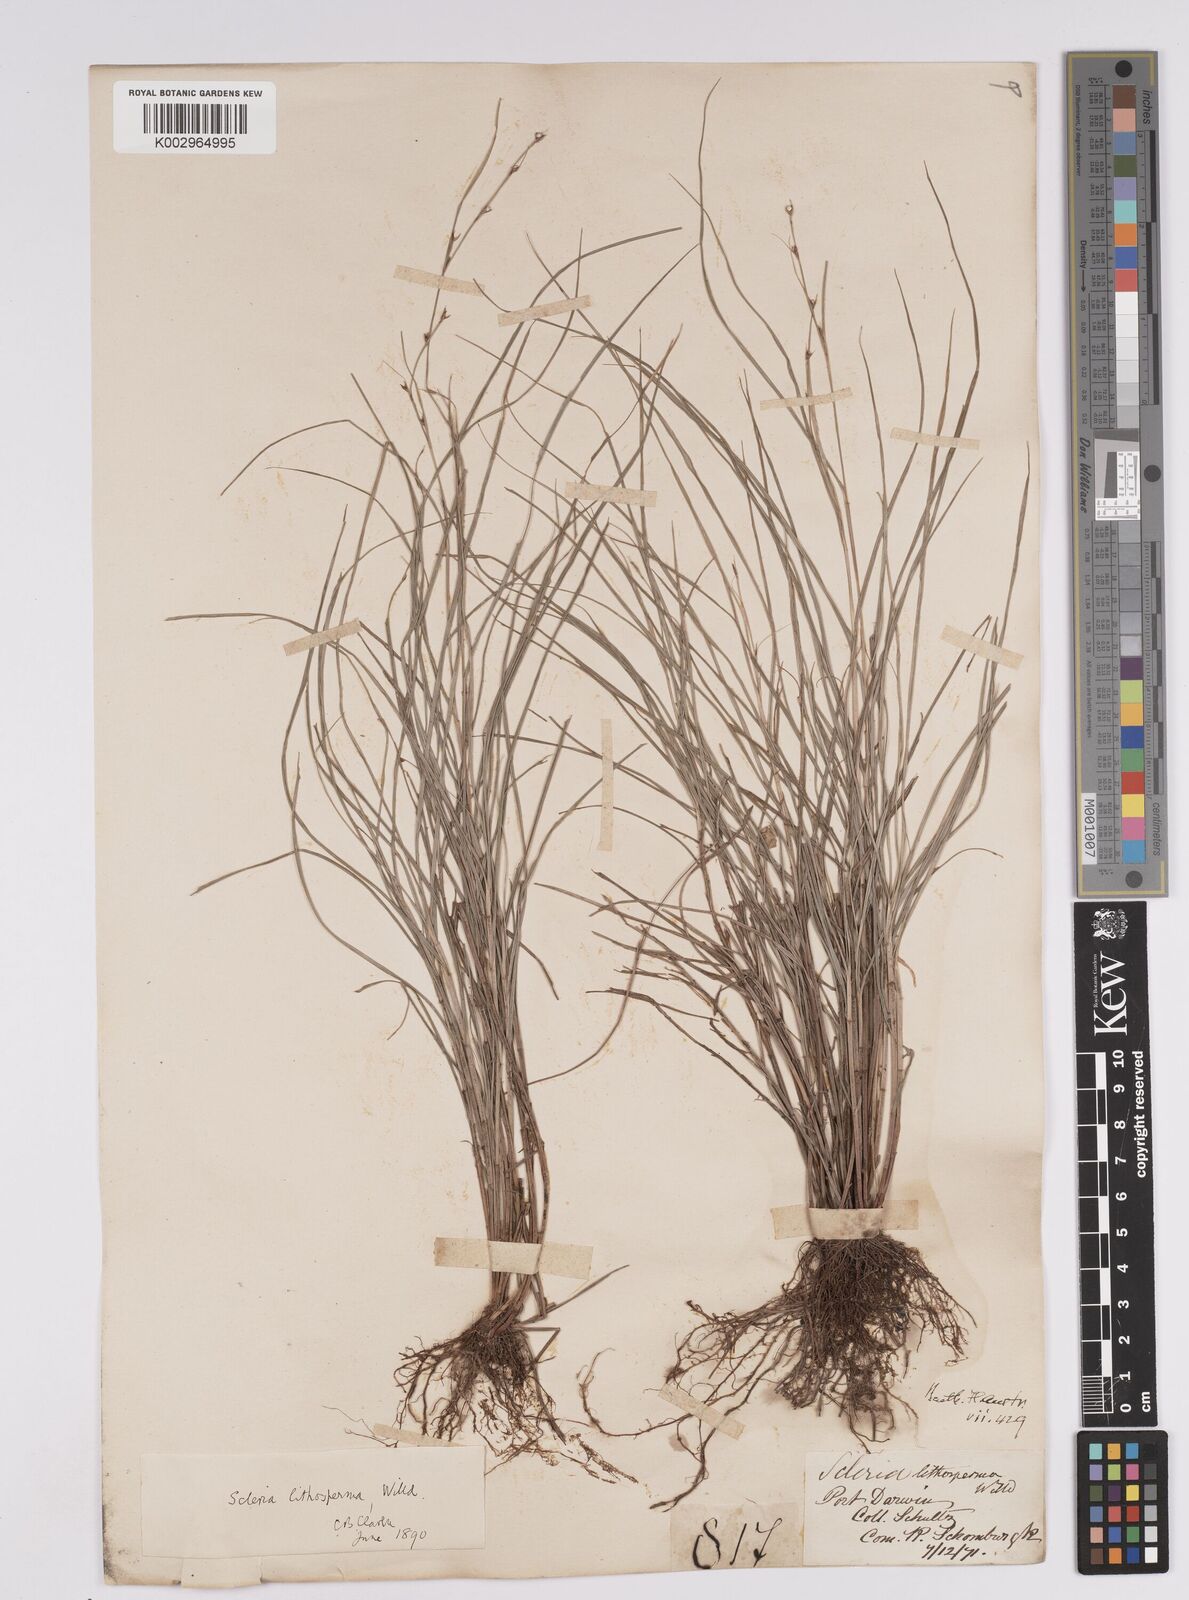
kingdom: Plantae
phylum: Tracheophyta
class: Liliopsida
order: Poales
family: Cyperaceae
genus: Scleria
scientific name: Scleria lithosperma
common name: Florida keys nut-rush
